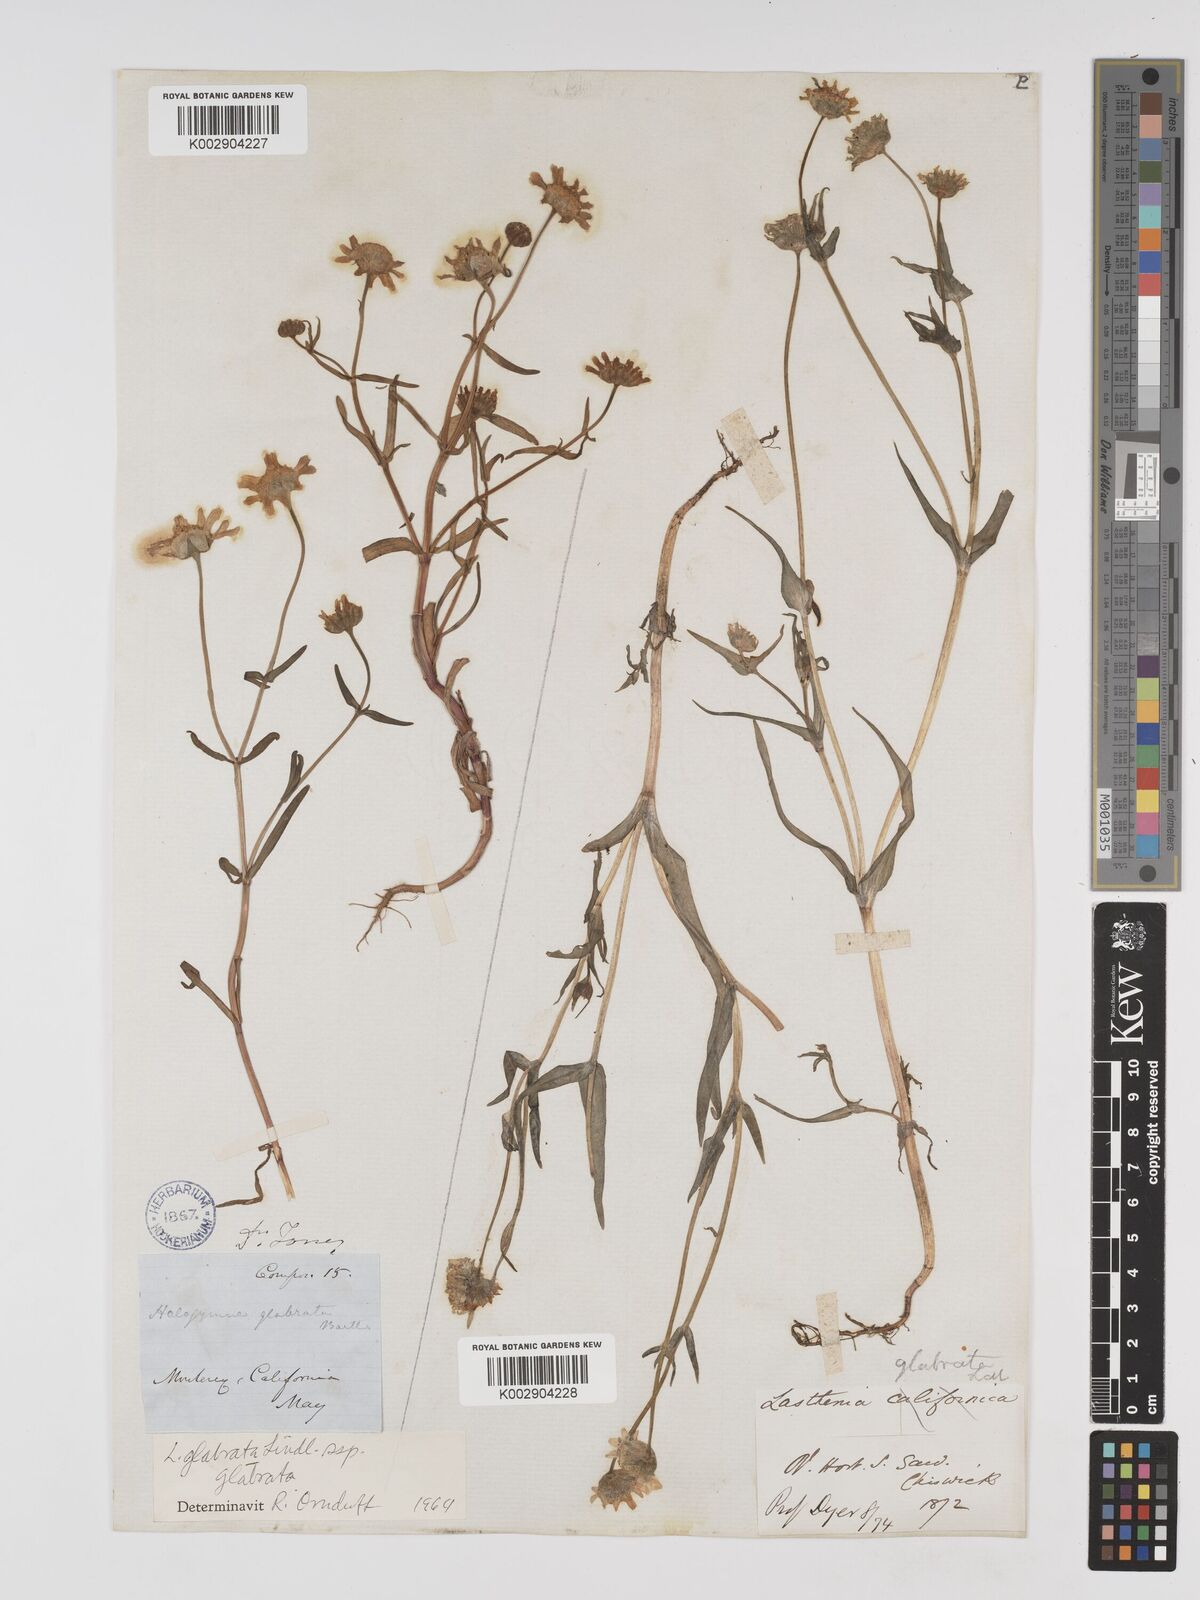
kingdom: Plantae
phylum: Tracheophyta
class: Magnoliopsida
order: Asterales
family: Asteraceae
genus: Lasthenia
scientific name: Lasthenia glabrata
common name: Yellow-ray lasthenia
